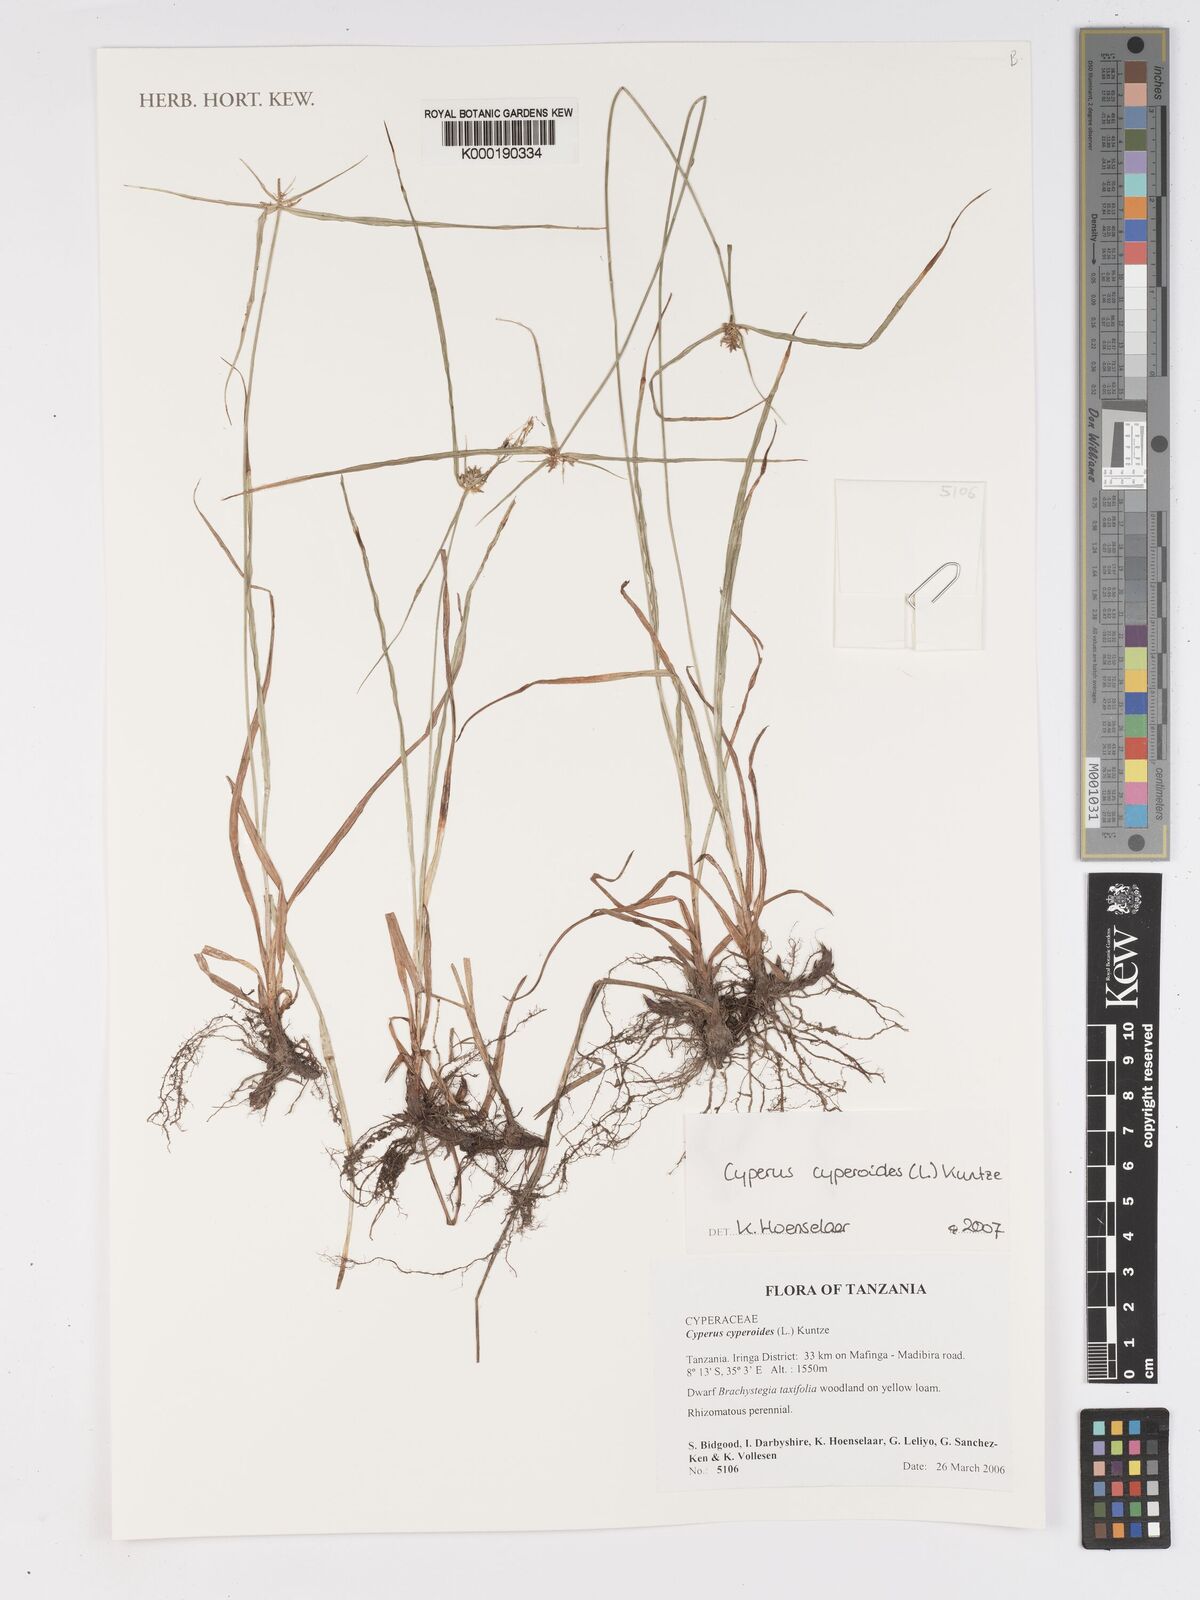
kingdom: Plantae
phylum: Tracheophyta
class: Liliopsida
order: Poales
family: Cyperaceae
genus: Cyperus
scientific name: Cyperus cyperoides
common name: Pacific island flat sedge
